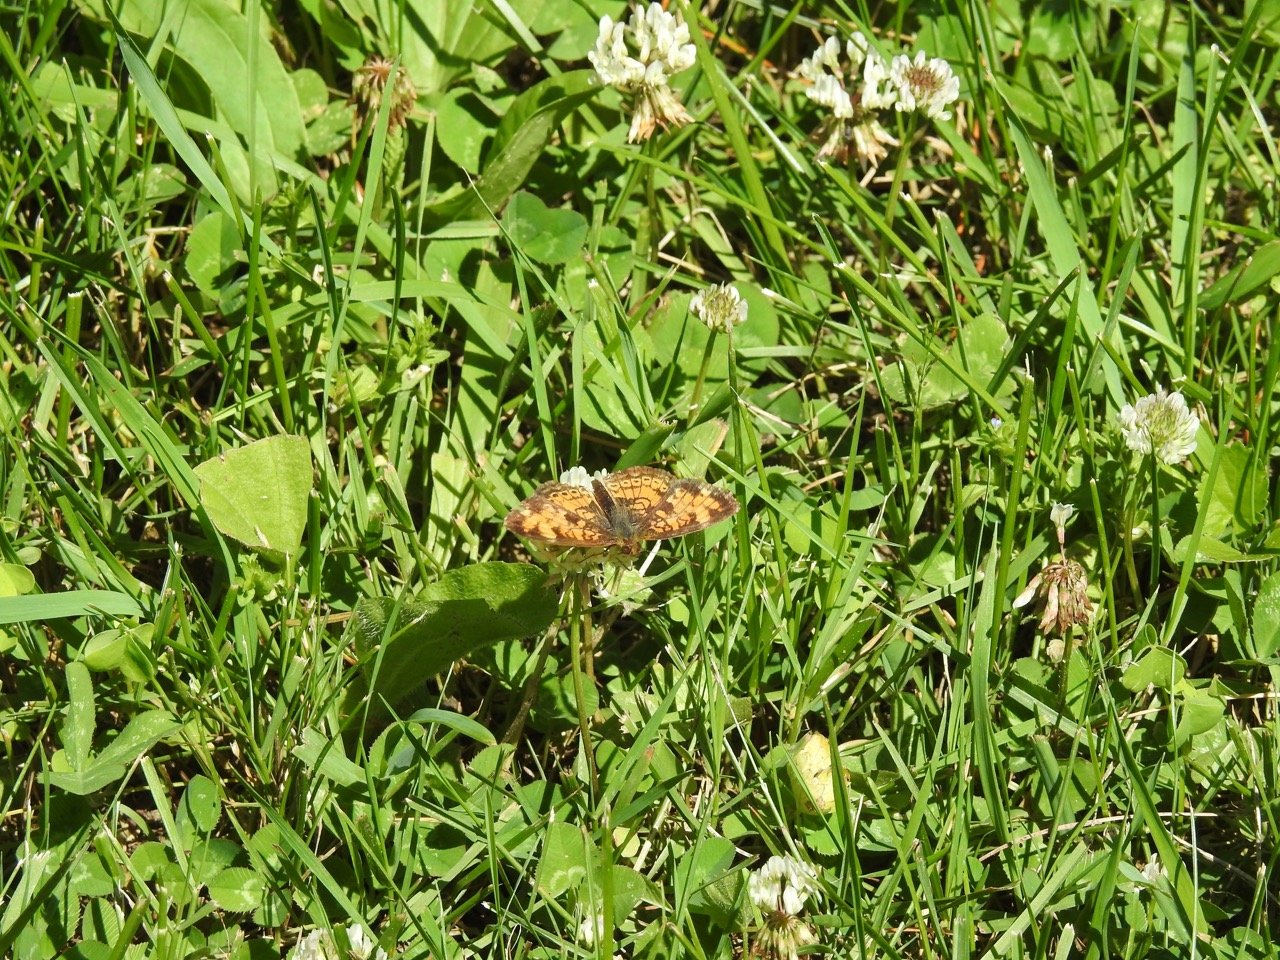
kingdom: Animalia
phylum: Arthropoda
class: Insecta
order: Lepidoptera
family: Nymphalidae
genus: Phyciodes
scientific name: Phyciodes tharos
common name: Pearl Crescent
